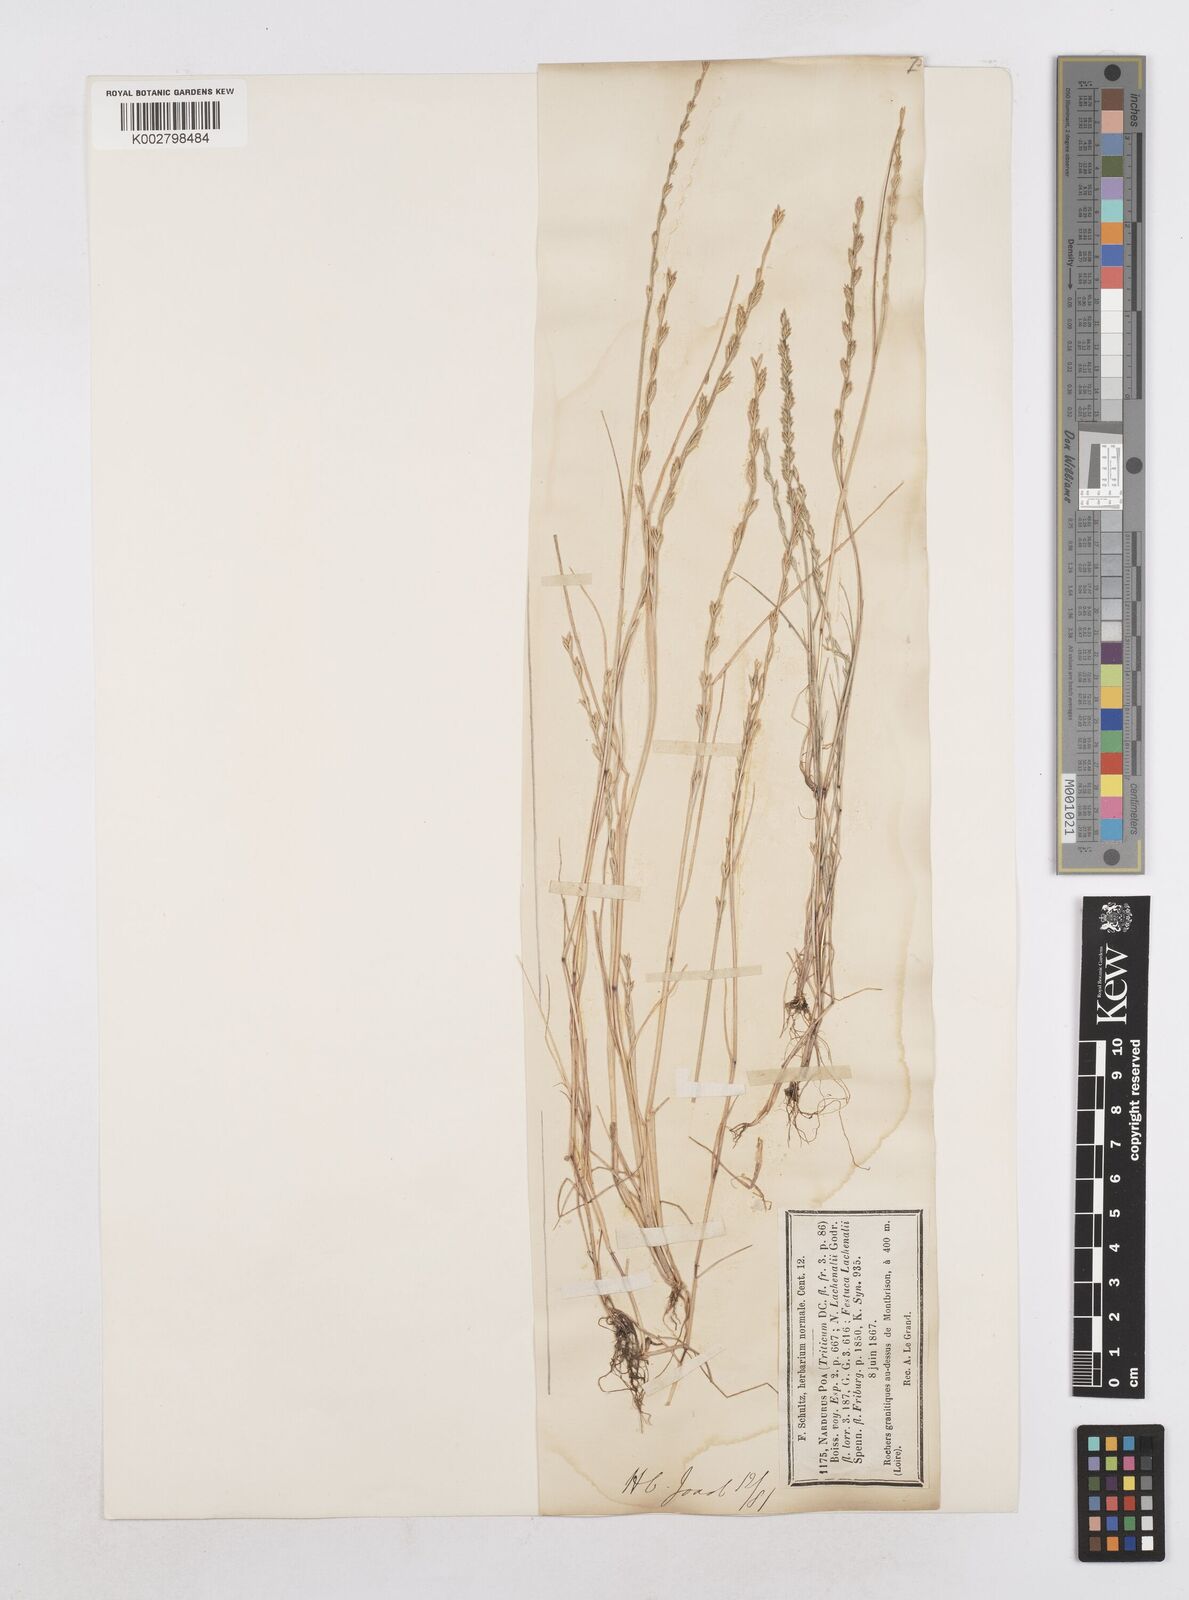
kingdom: Plantae
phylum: Tracheophyta
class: Liliopsida
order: Poales
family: Poaceae
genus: Festuca
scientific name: Festuca lachenalii
